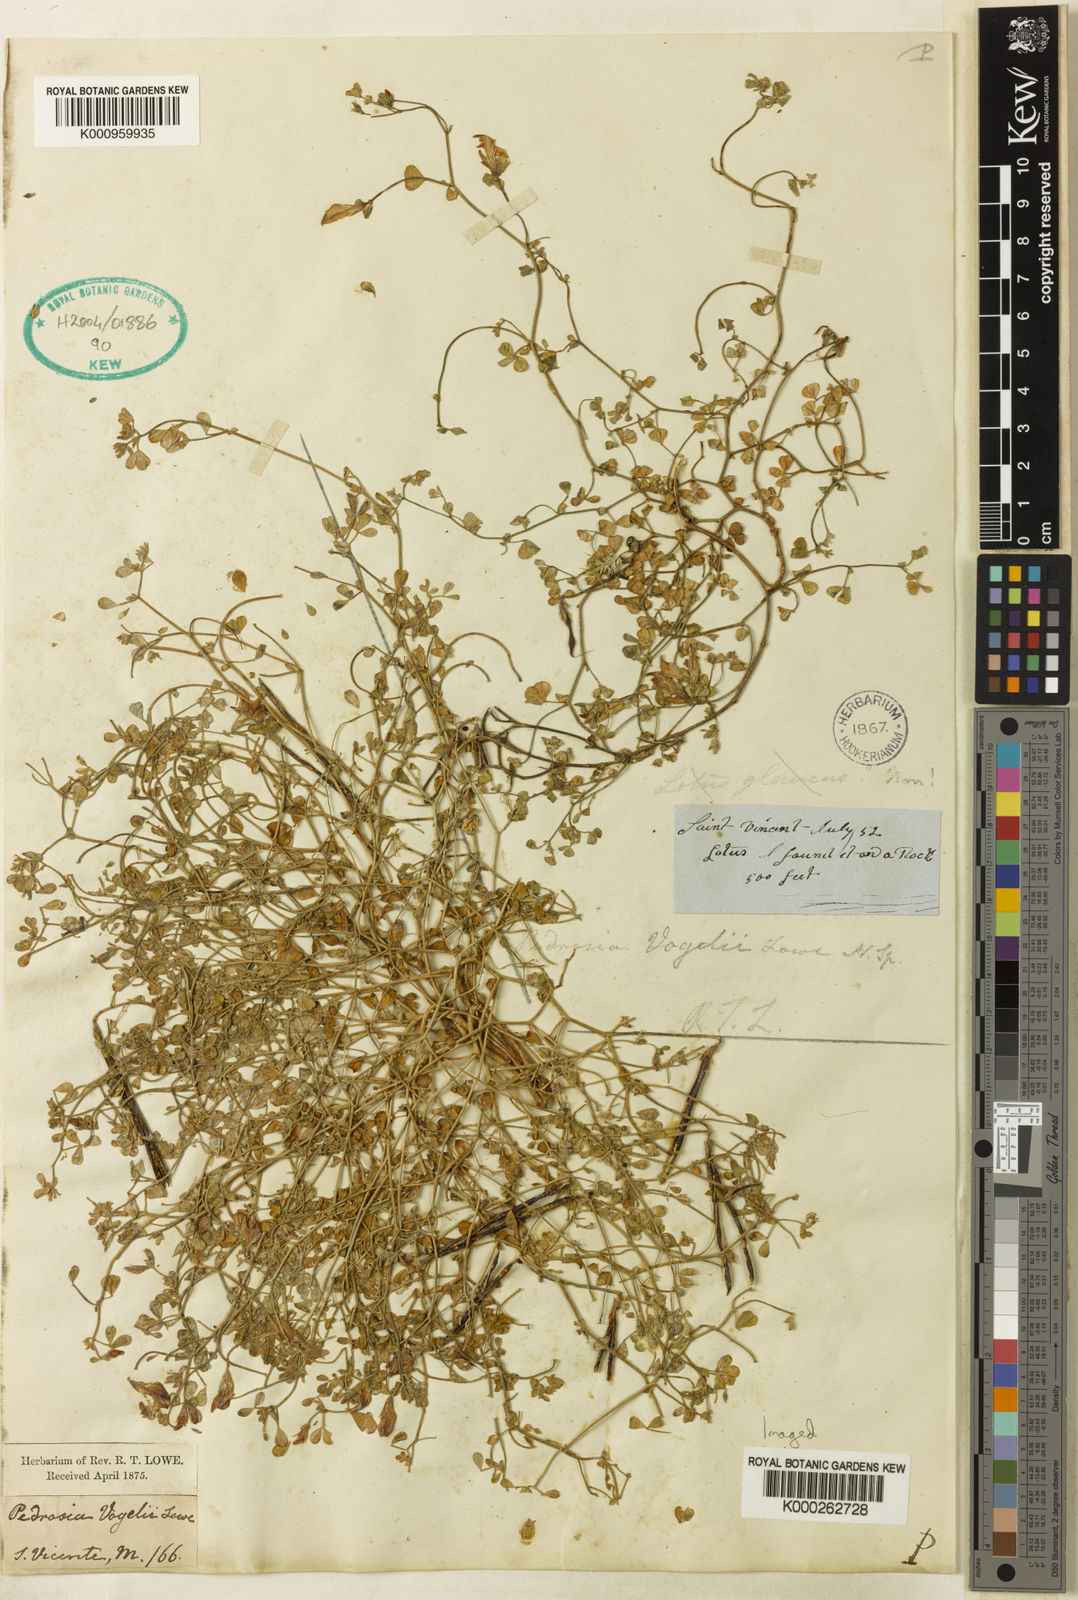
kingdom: Plantae
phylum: Tracheophyta
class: Magnoliopsida
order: Fabales
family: Fabaceae
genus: Lotus
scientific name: Lotus
